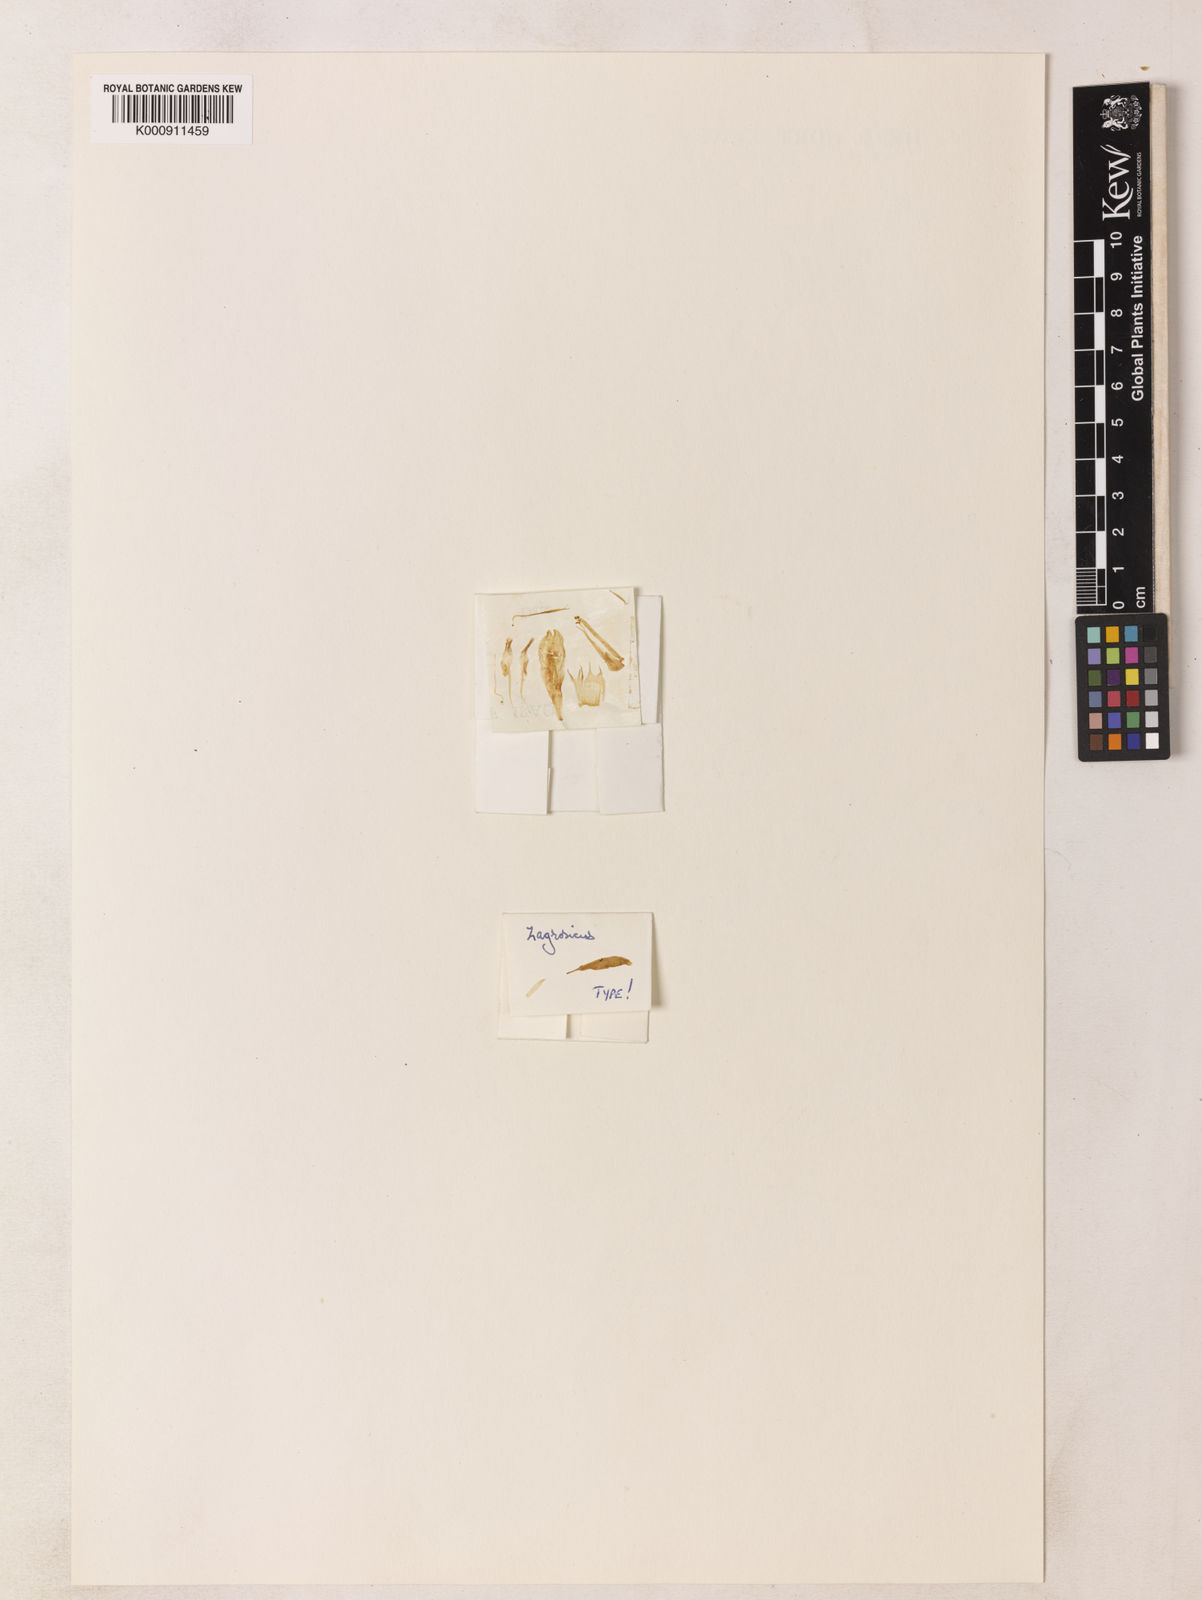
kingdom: Plantae
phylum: Tracheophyta
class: Magnoliopsida
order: Fabales
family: Fabaceae
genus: Astragalus
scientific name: Astragalus zagrosicus
